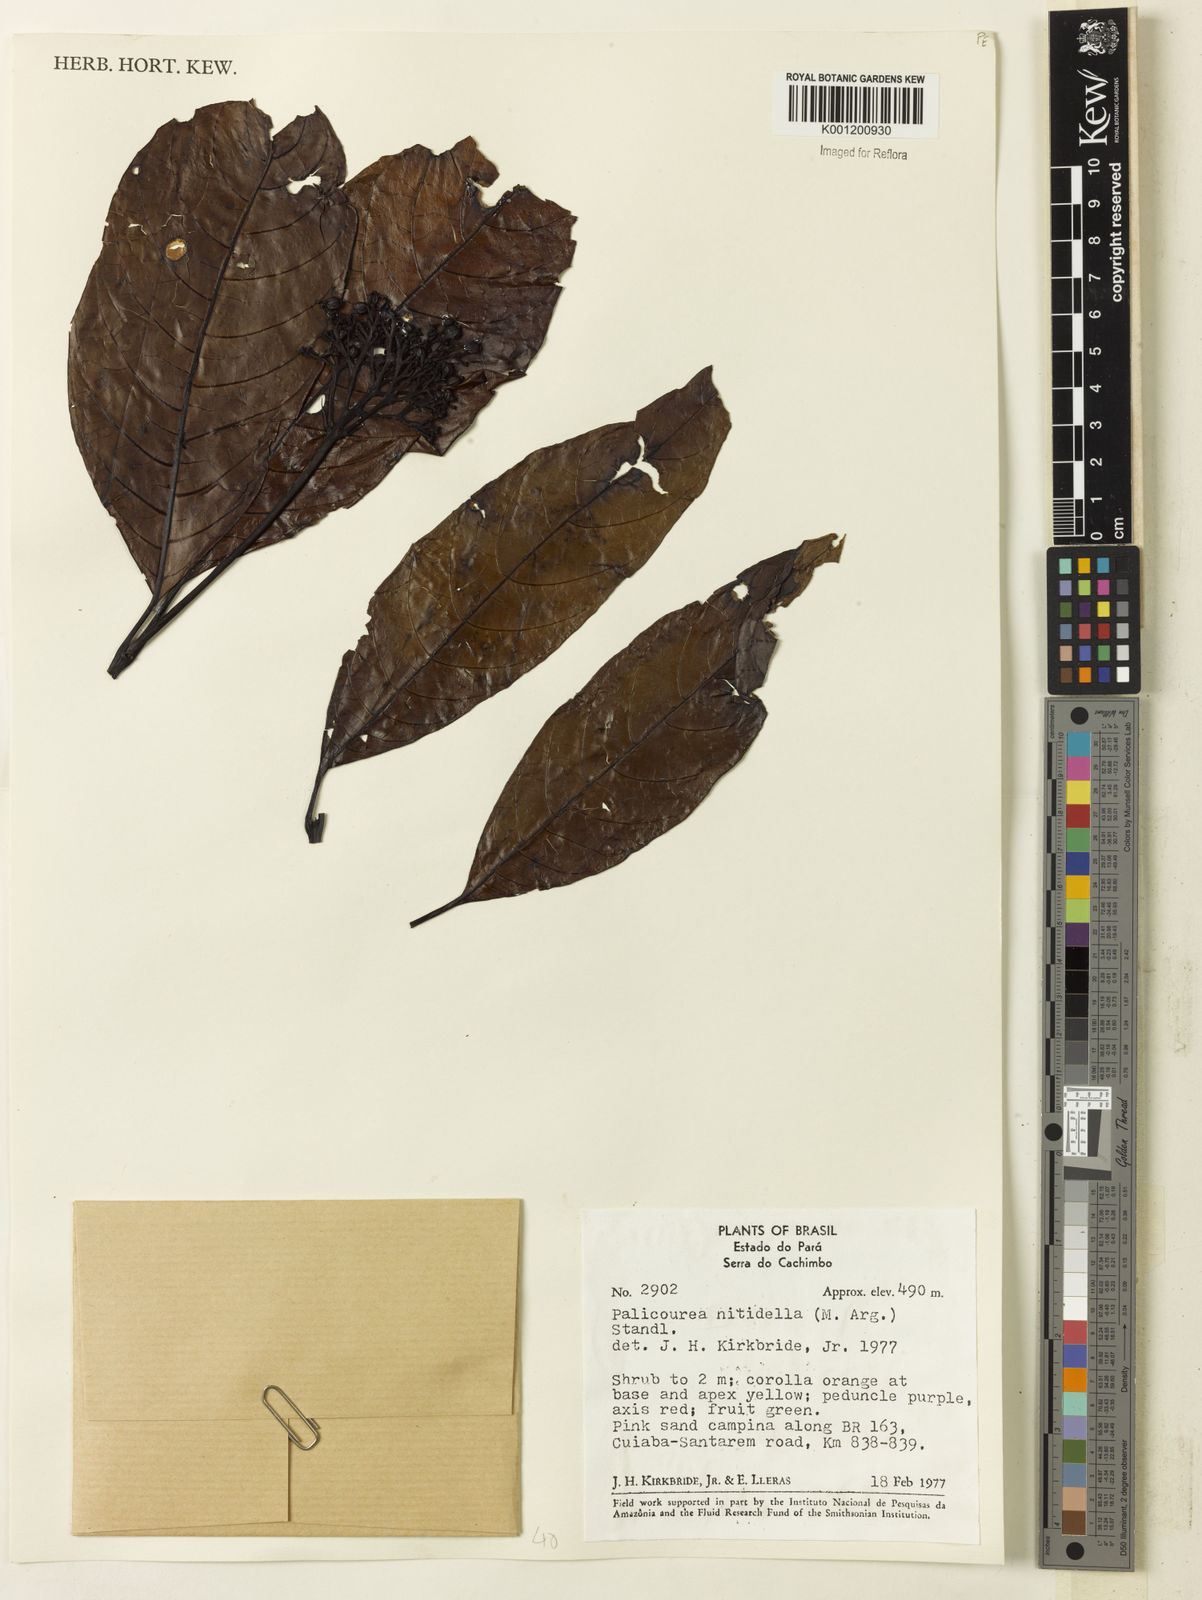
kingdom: Plantae
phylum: Tracheophyta
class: Magnoliopsida
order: Gentianales
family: Rubiaceae
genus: Palicourea
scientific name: Palicourea
